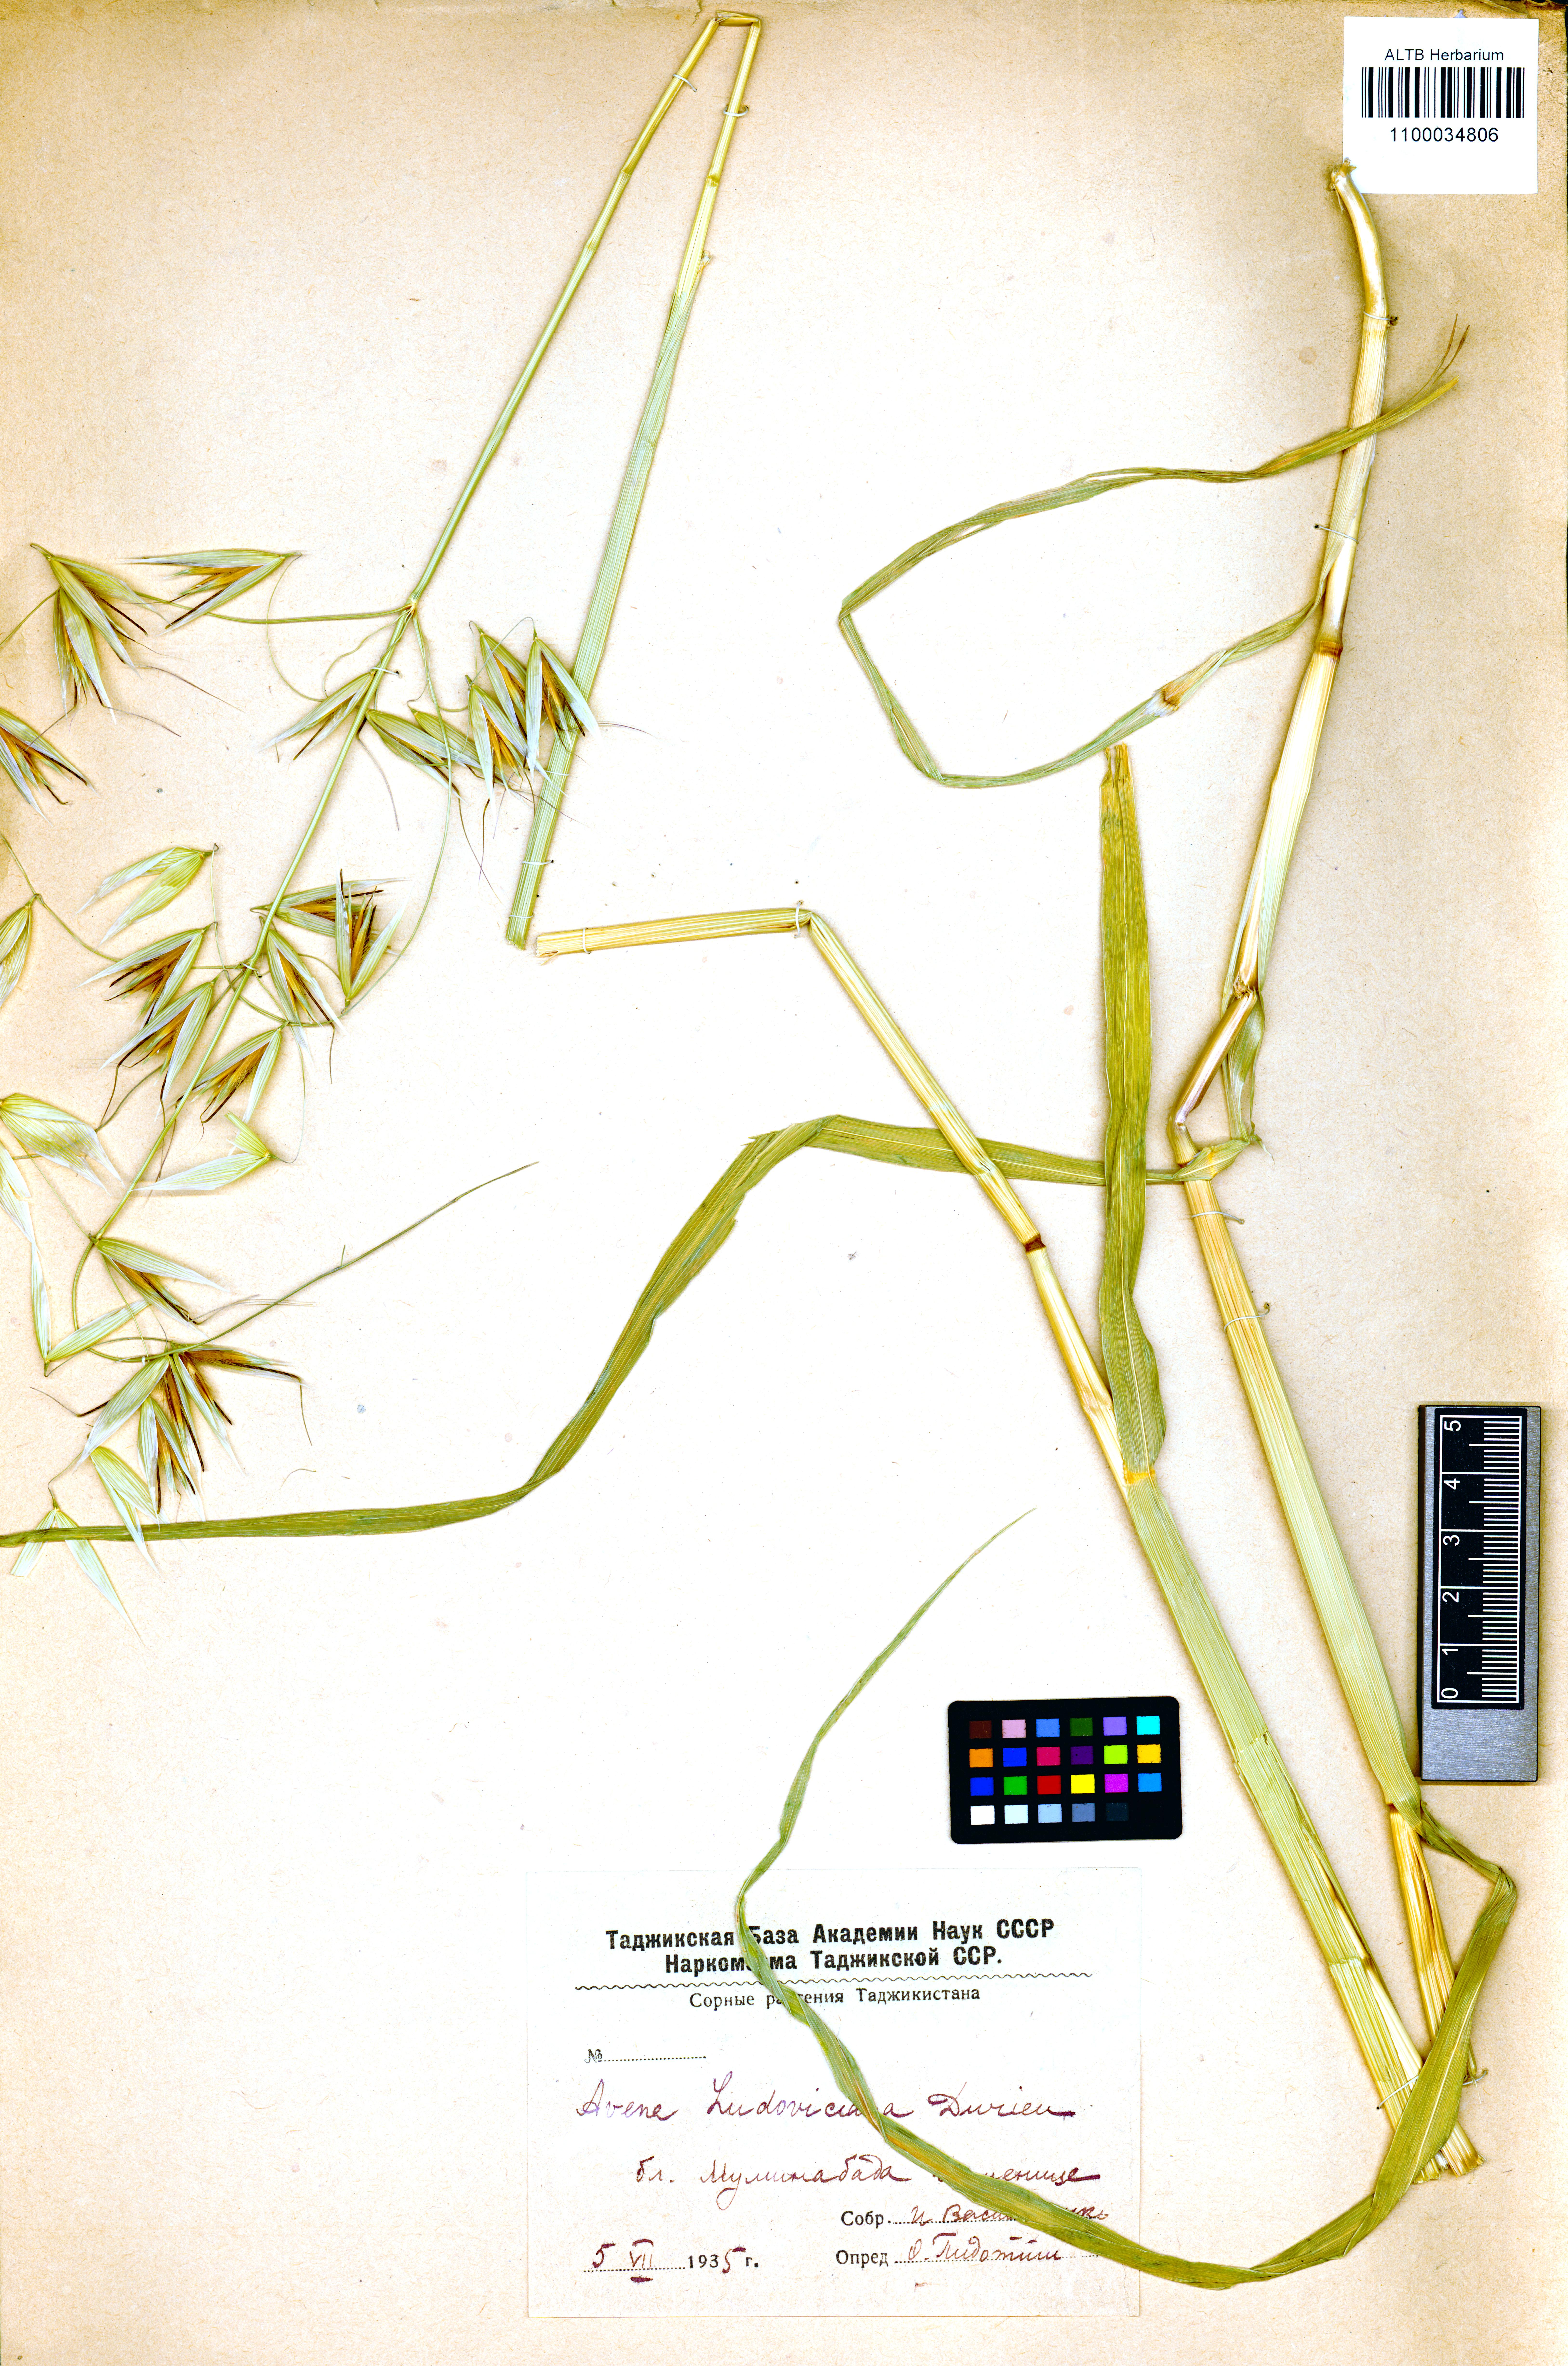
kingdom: Plantae
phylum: Tracheophyta
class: Liliopsida
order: Poales
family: Poaceae
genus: Avena
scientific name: Avena sterilis
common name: Animated oat
